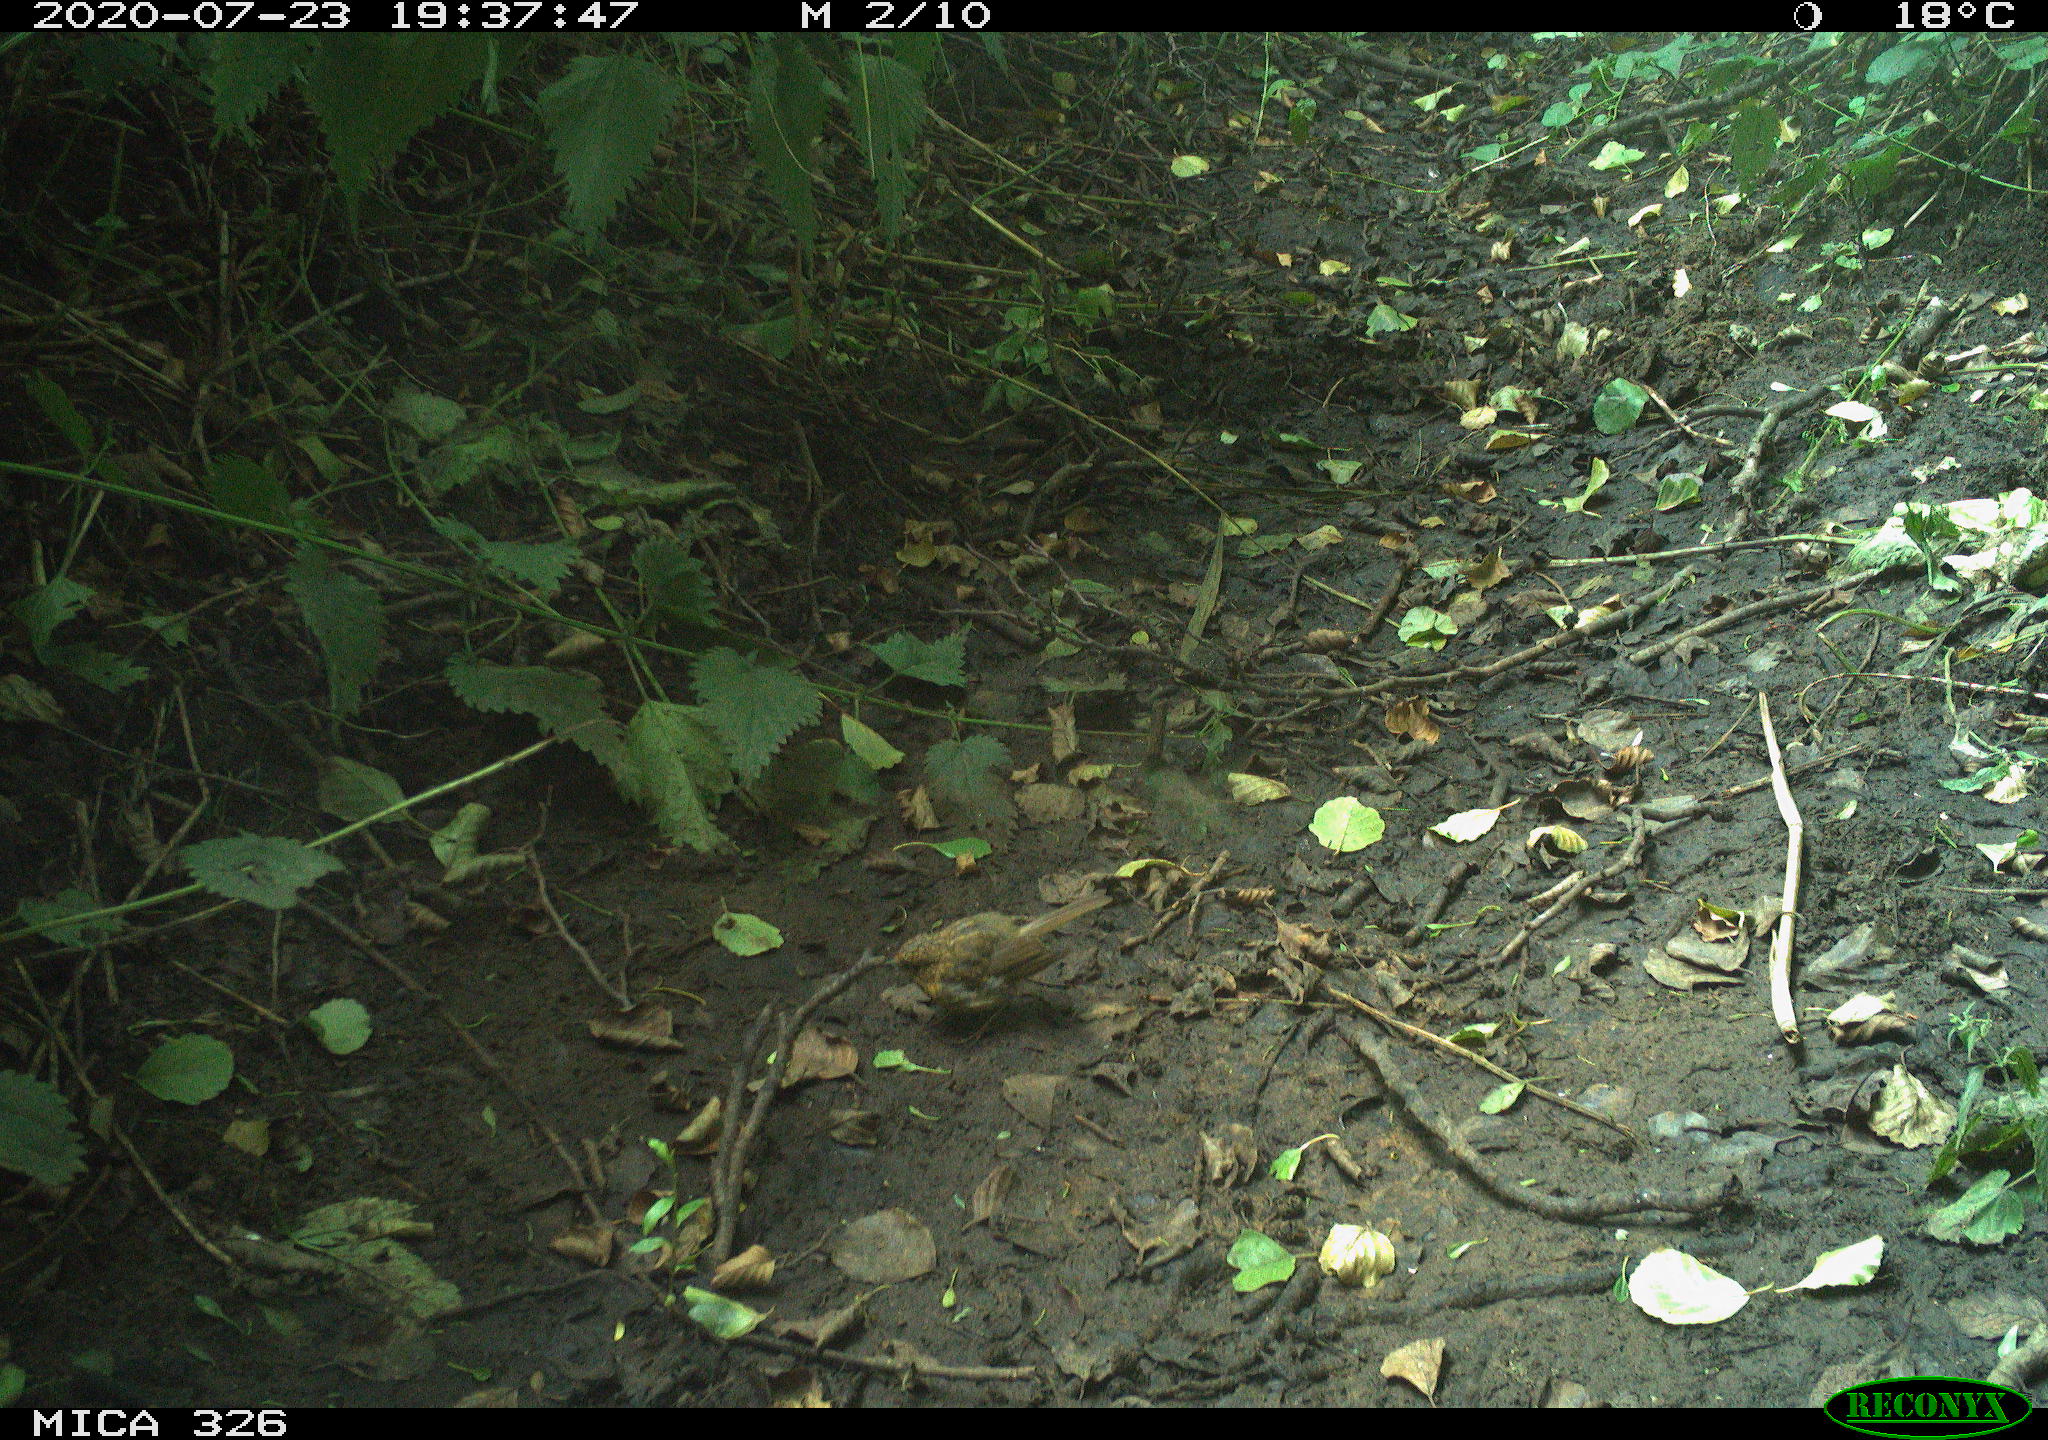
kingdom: Animalia
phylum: Chordata
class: Aves
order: Passeriformes
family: Muscicapidae
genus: Erithacus
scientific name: Erithacus rubecula
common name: European robin
